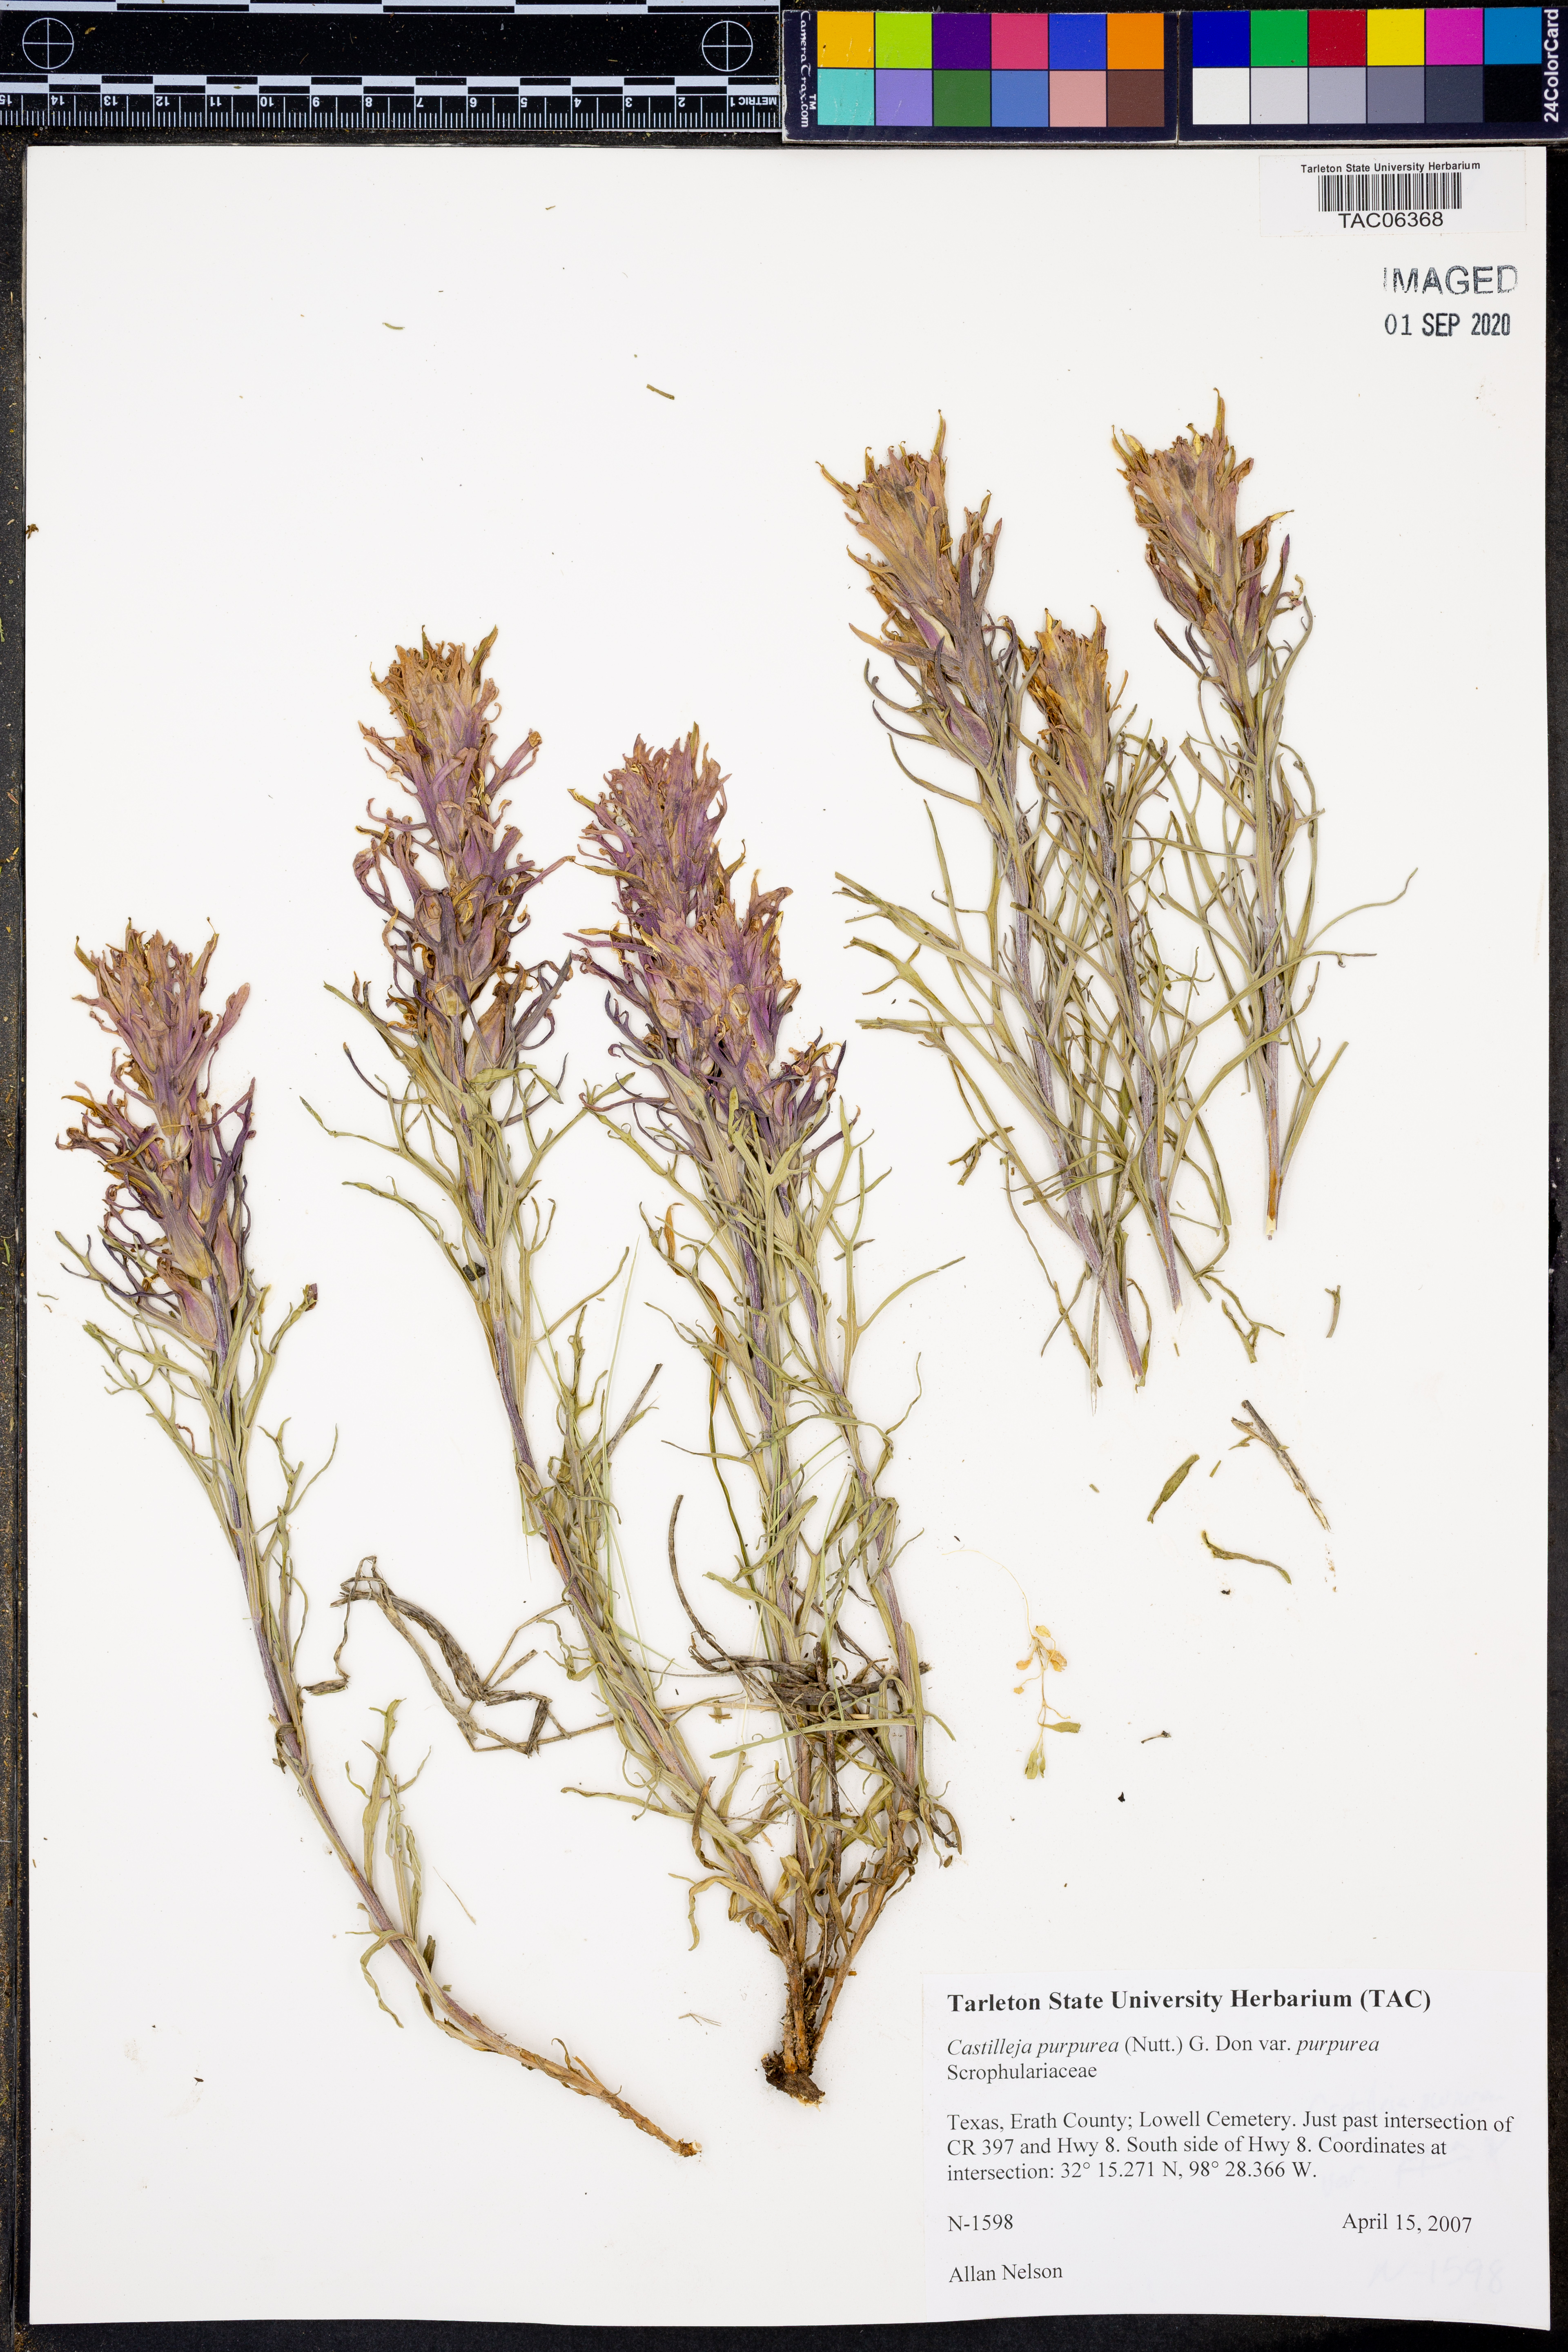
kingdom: Plantae
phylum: Tracheophyta
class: Magnoliopsida
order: Lamiales
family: Orobanchaceae
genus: Castilleja
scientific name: Castilleja purpurea
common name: Plains paintbrush
